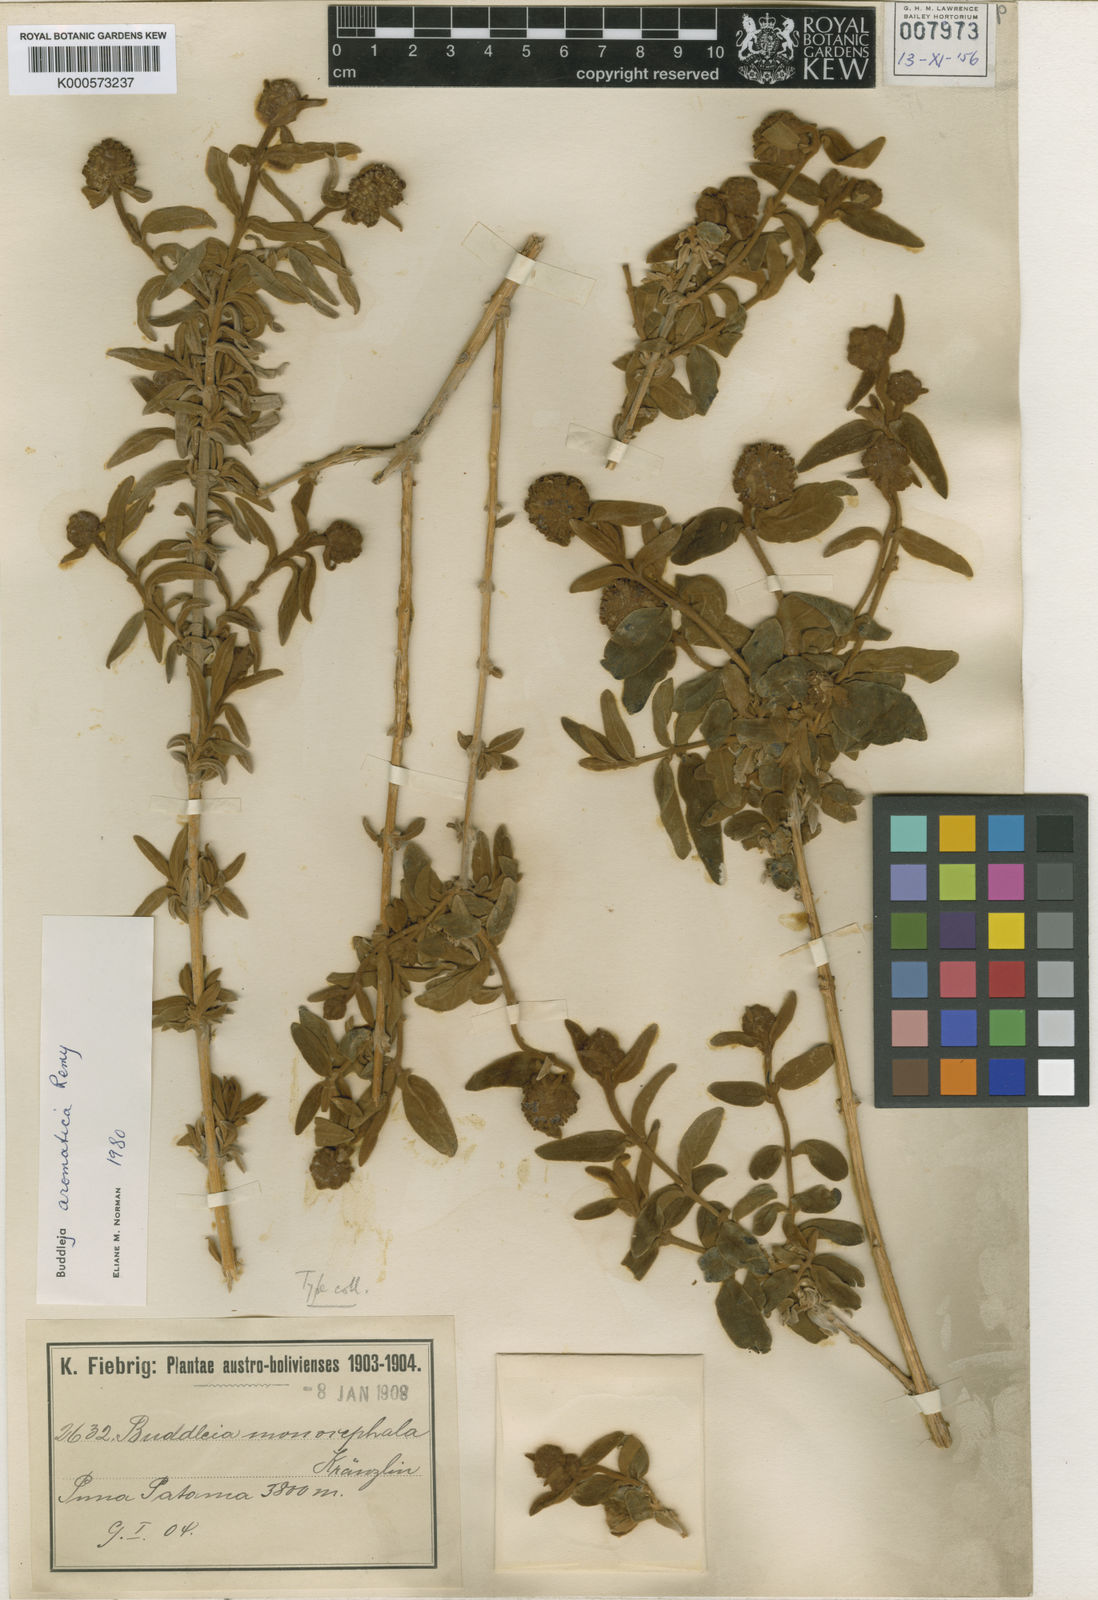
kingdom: Plantae
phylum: Tracheophyta
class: Magnoliopsida
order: Lamiales
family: Scrophulariaceae
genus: Buddleja
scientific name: Buddleja
